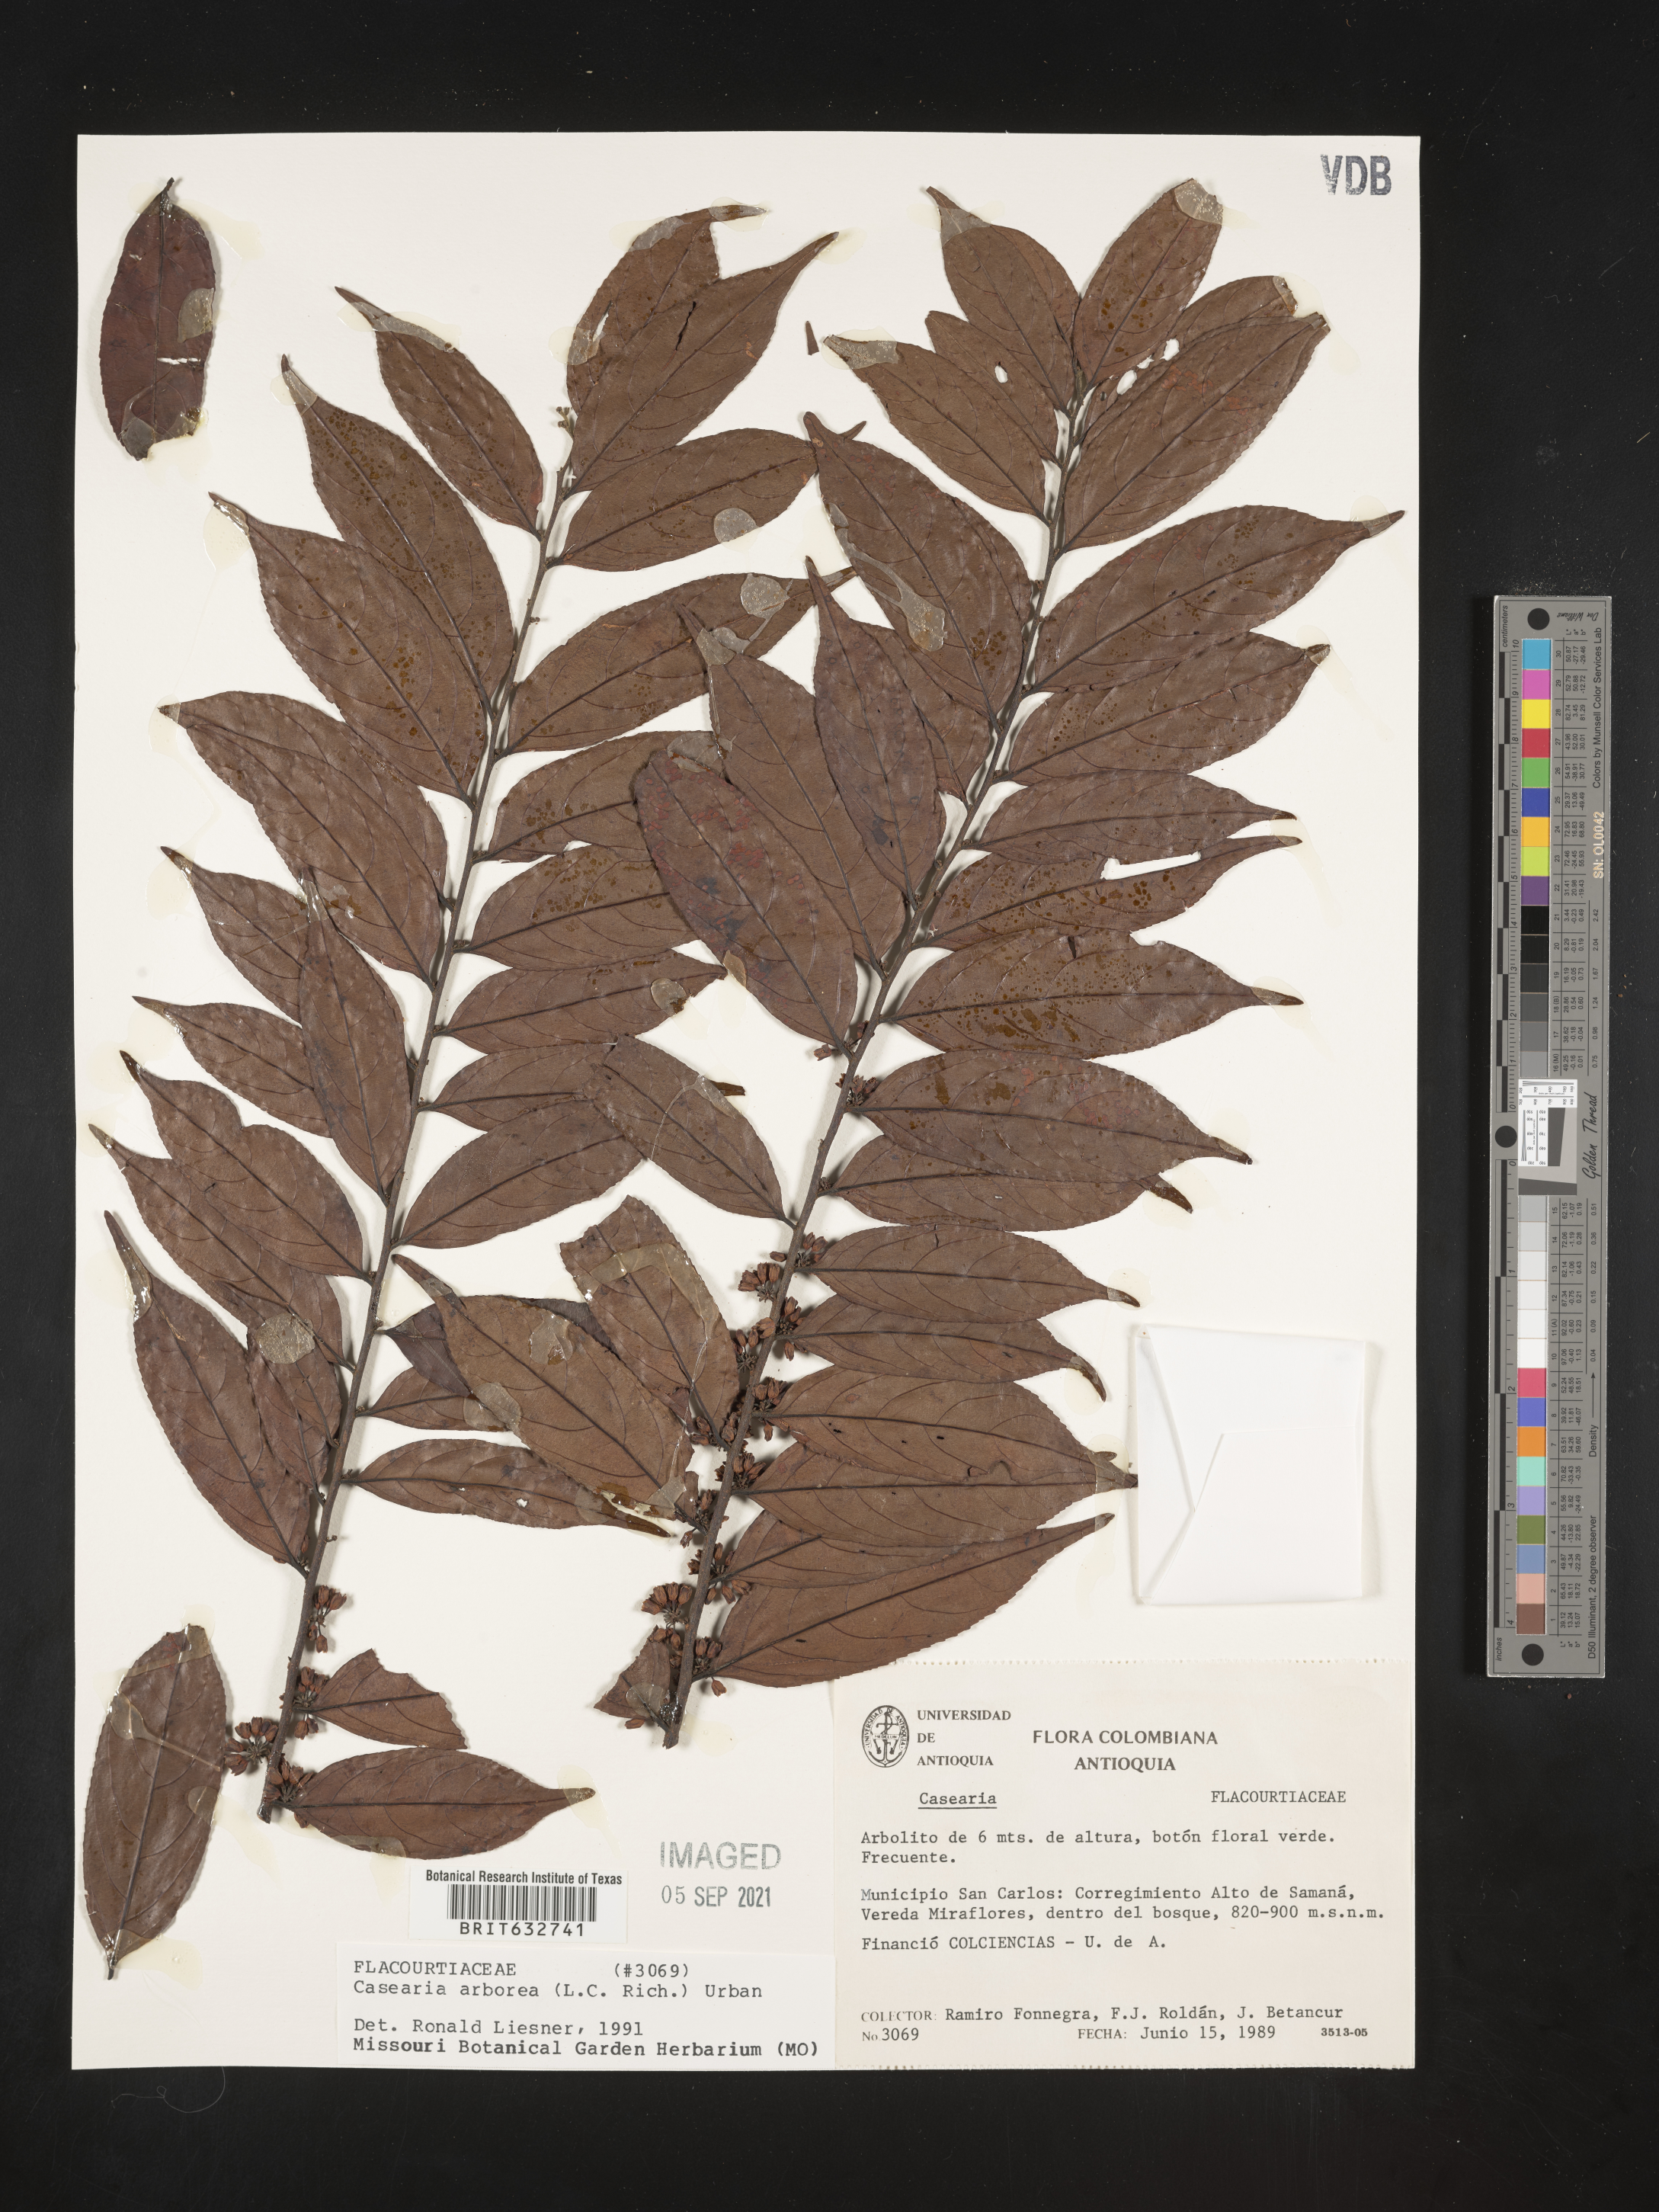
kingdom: Plantae
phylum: Tracheophyta
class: Magnoliopsida
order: Malpighiales
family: Salicaceae
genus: Casearia
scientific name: Casearia
